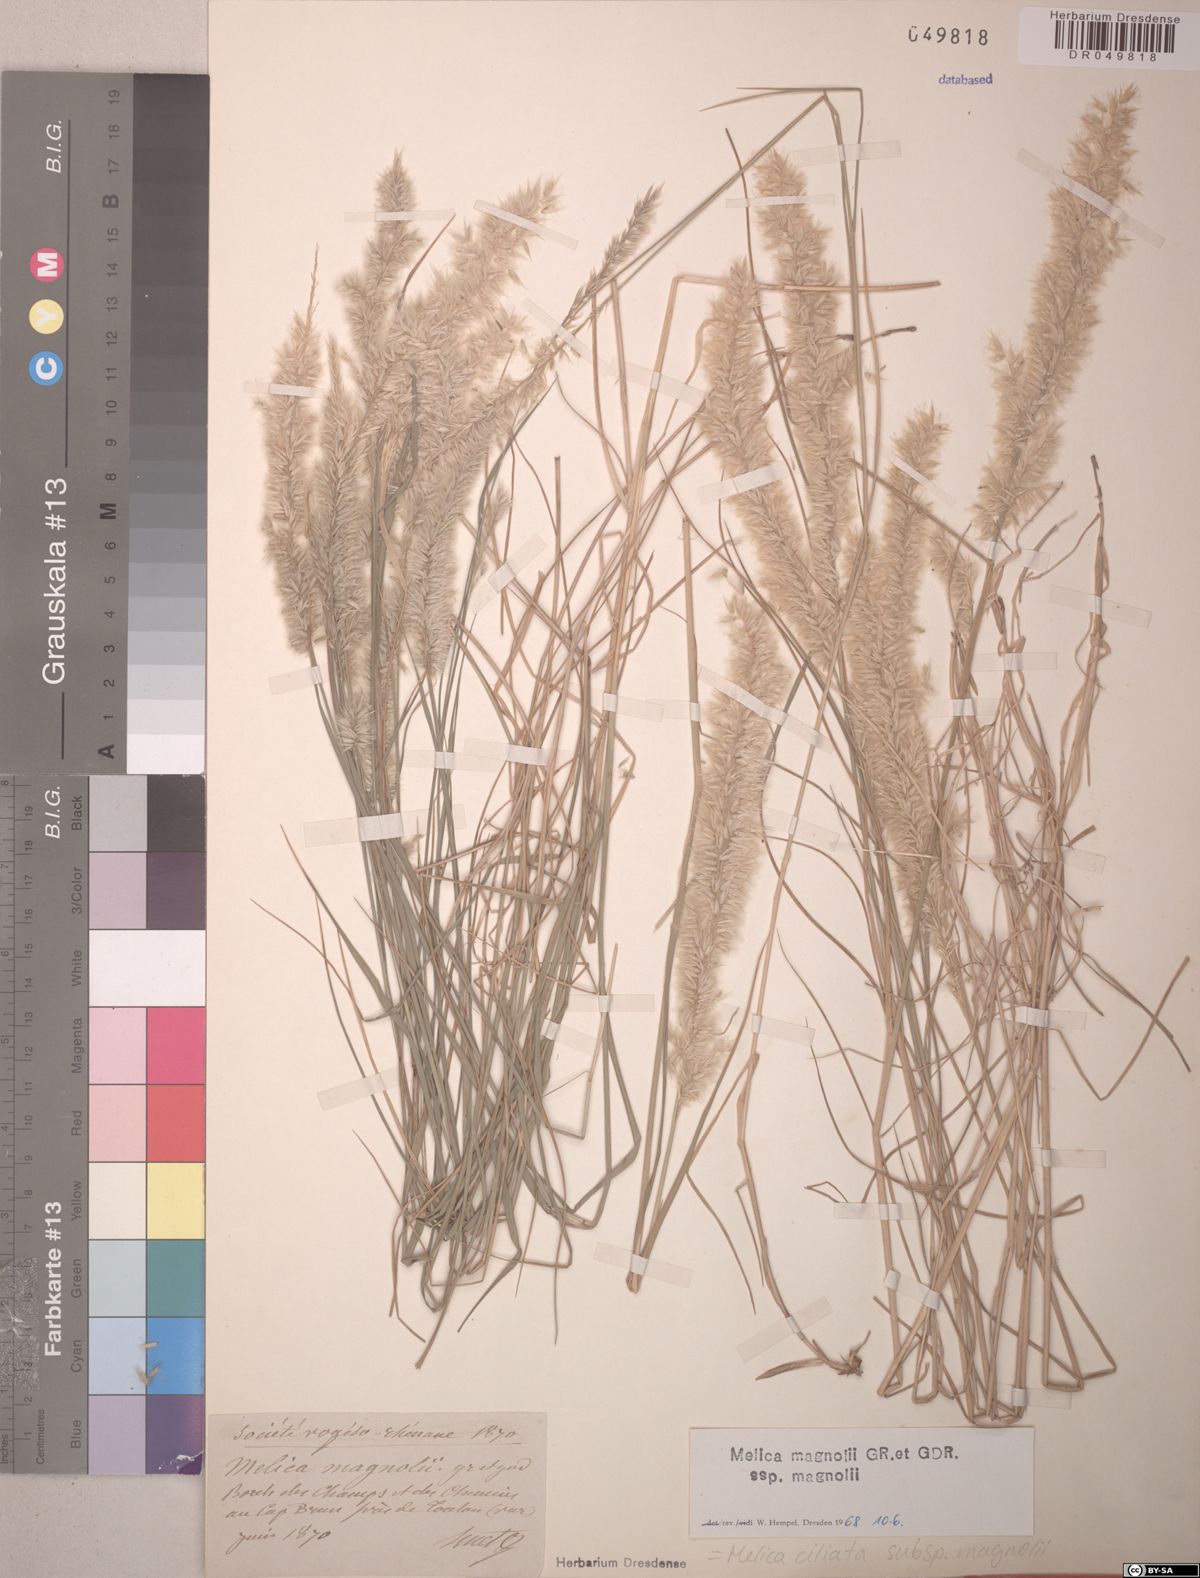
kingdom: Plantae
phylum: Tracheophyta
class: Liliopsida
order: Poales
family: Poaceae
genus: Melica
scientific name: Melica ciliata
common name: Hairy melicgrass
